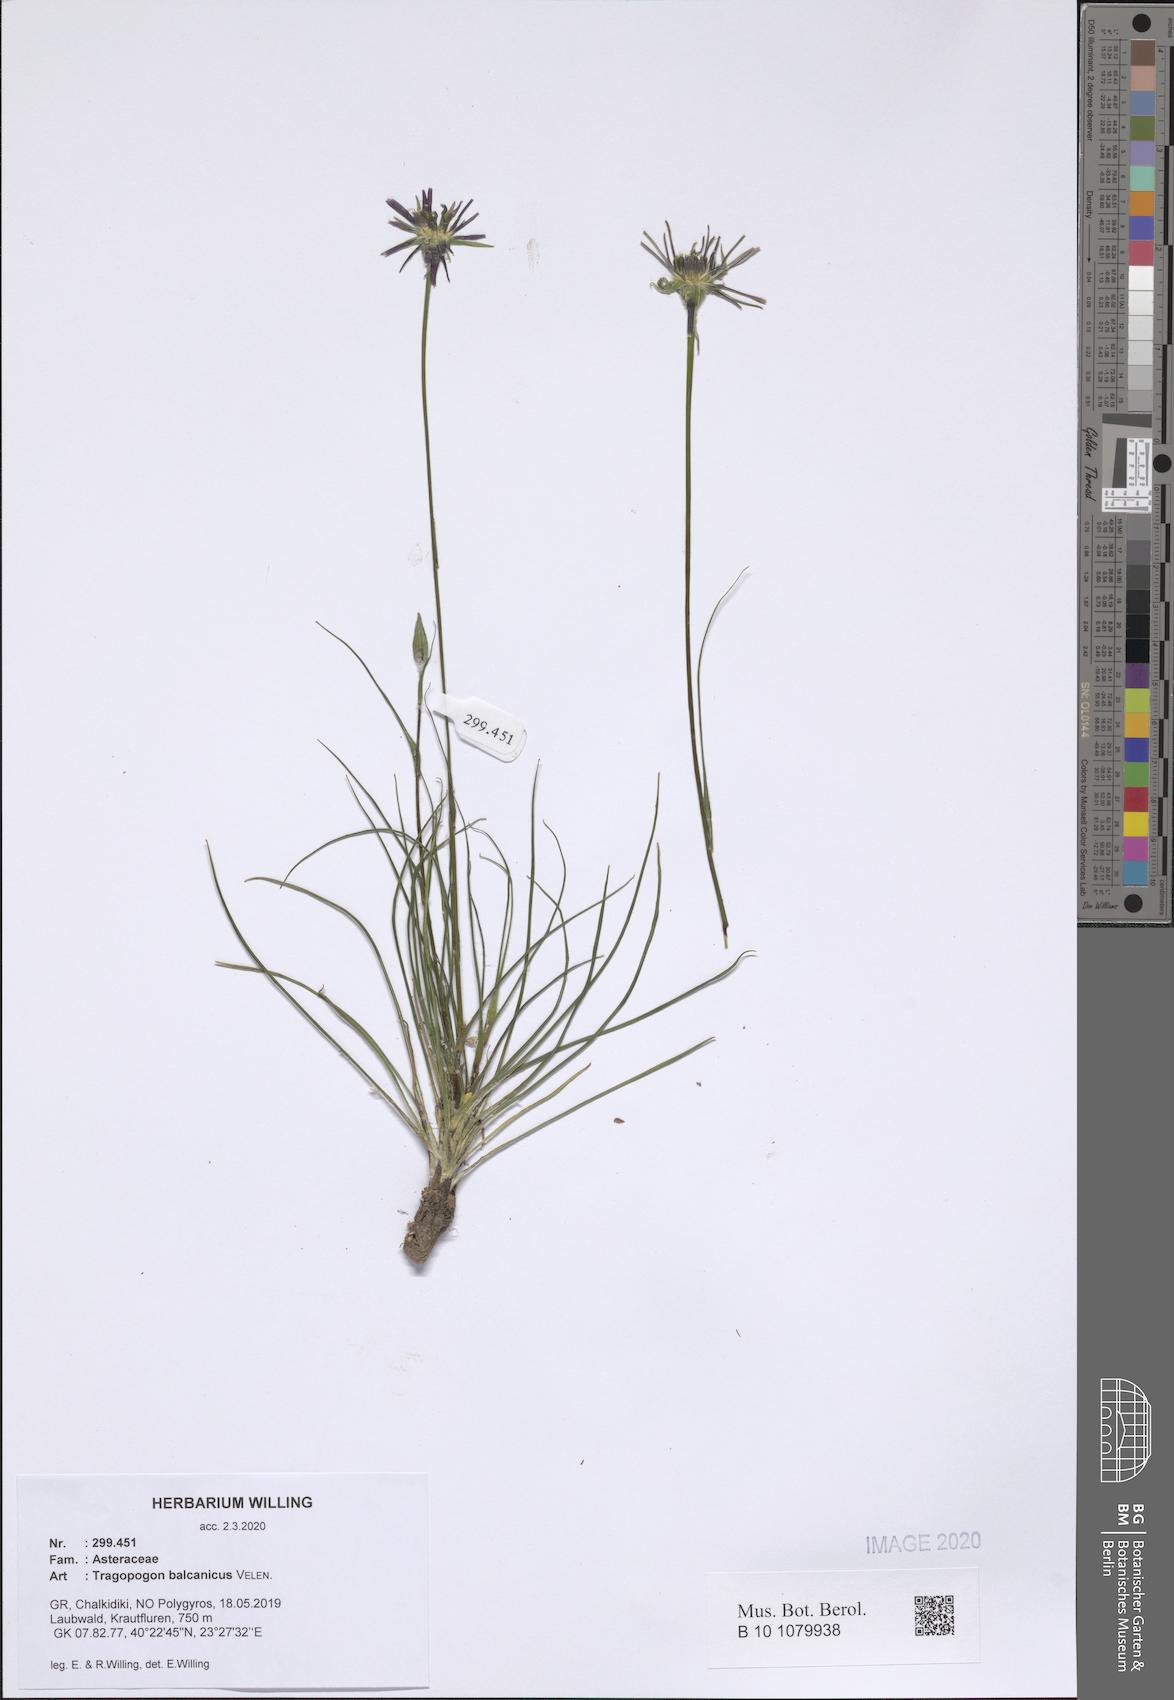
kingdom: Plantae
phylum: Tracheophyta
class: Magnoliopsida
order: Asterales
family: Asteraceae
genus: Tragopogon
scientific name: Tragopogon balcanicus
